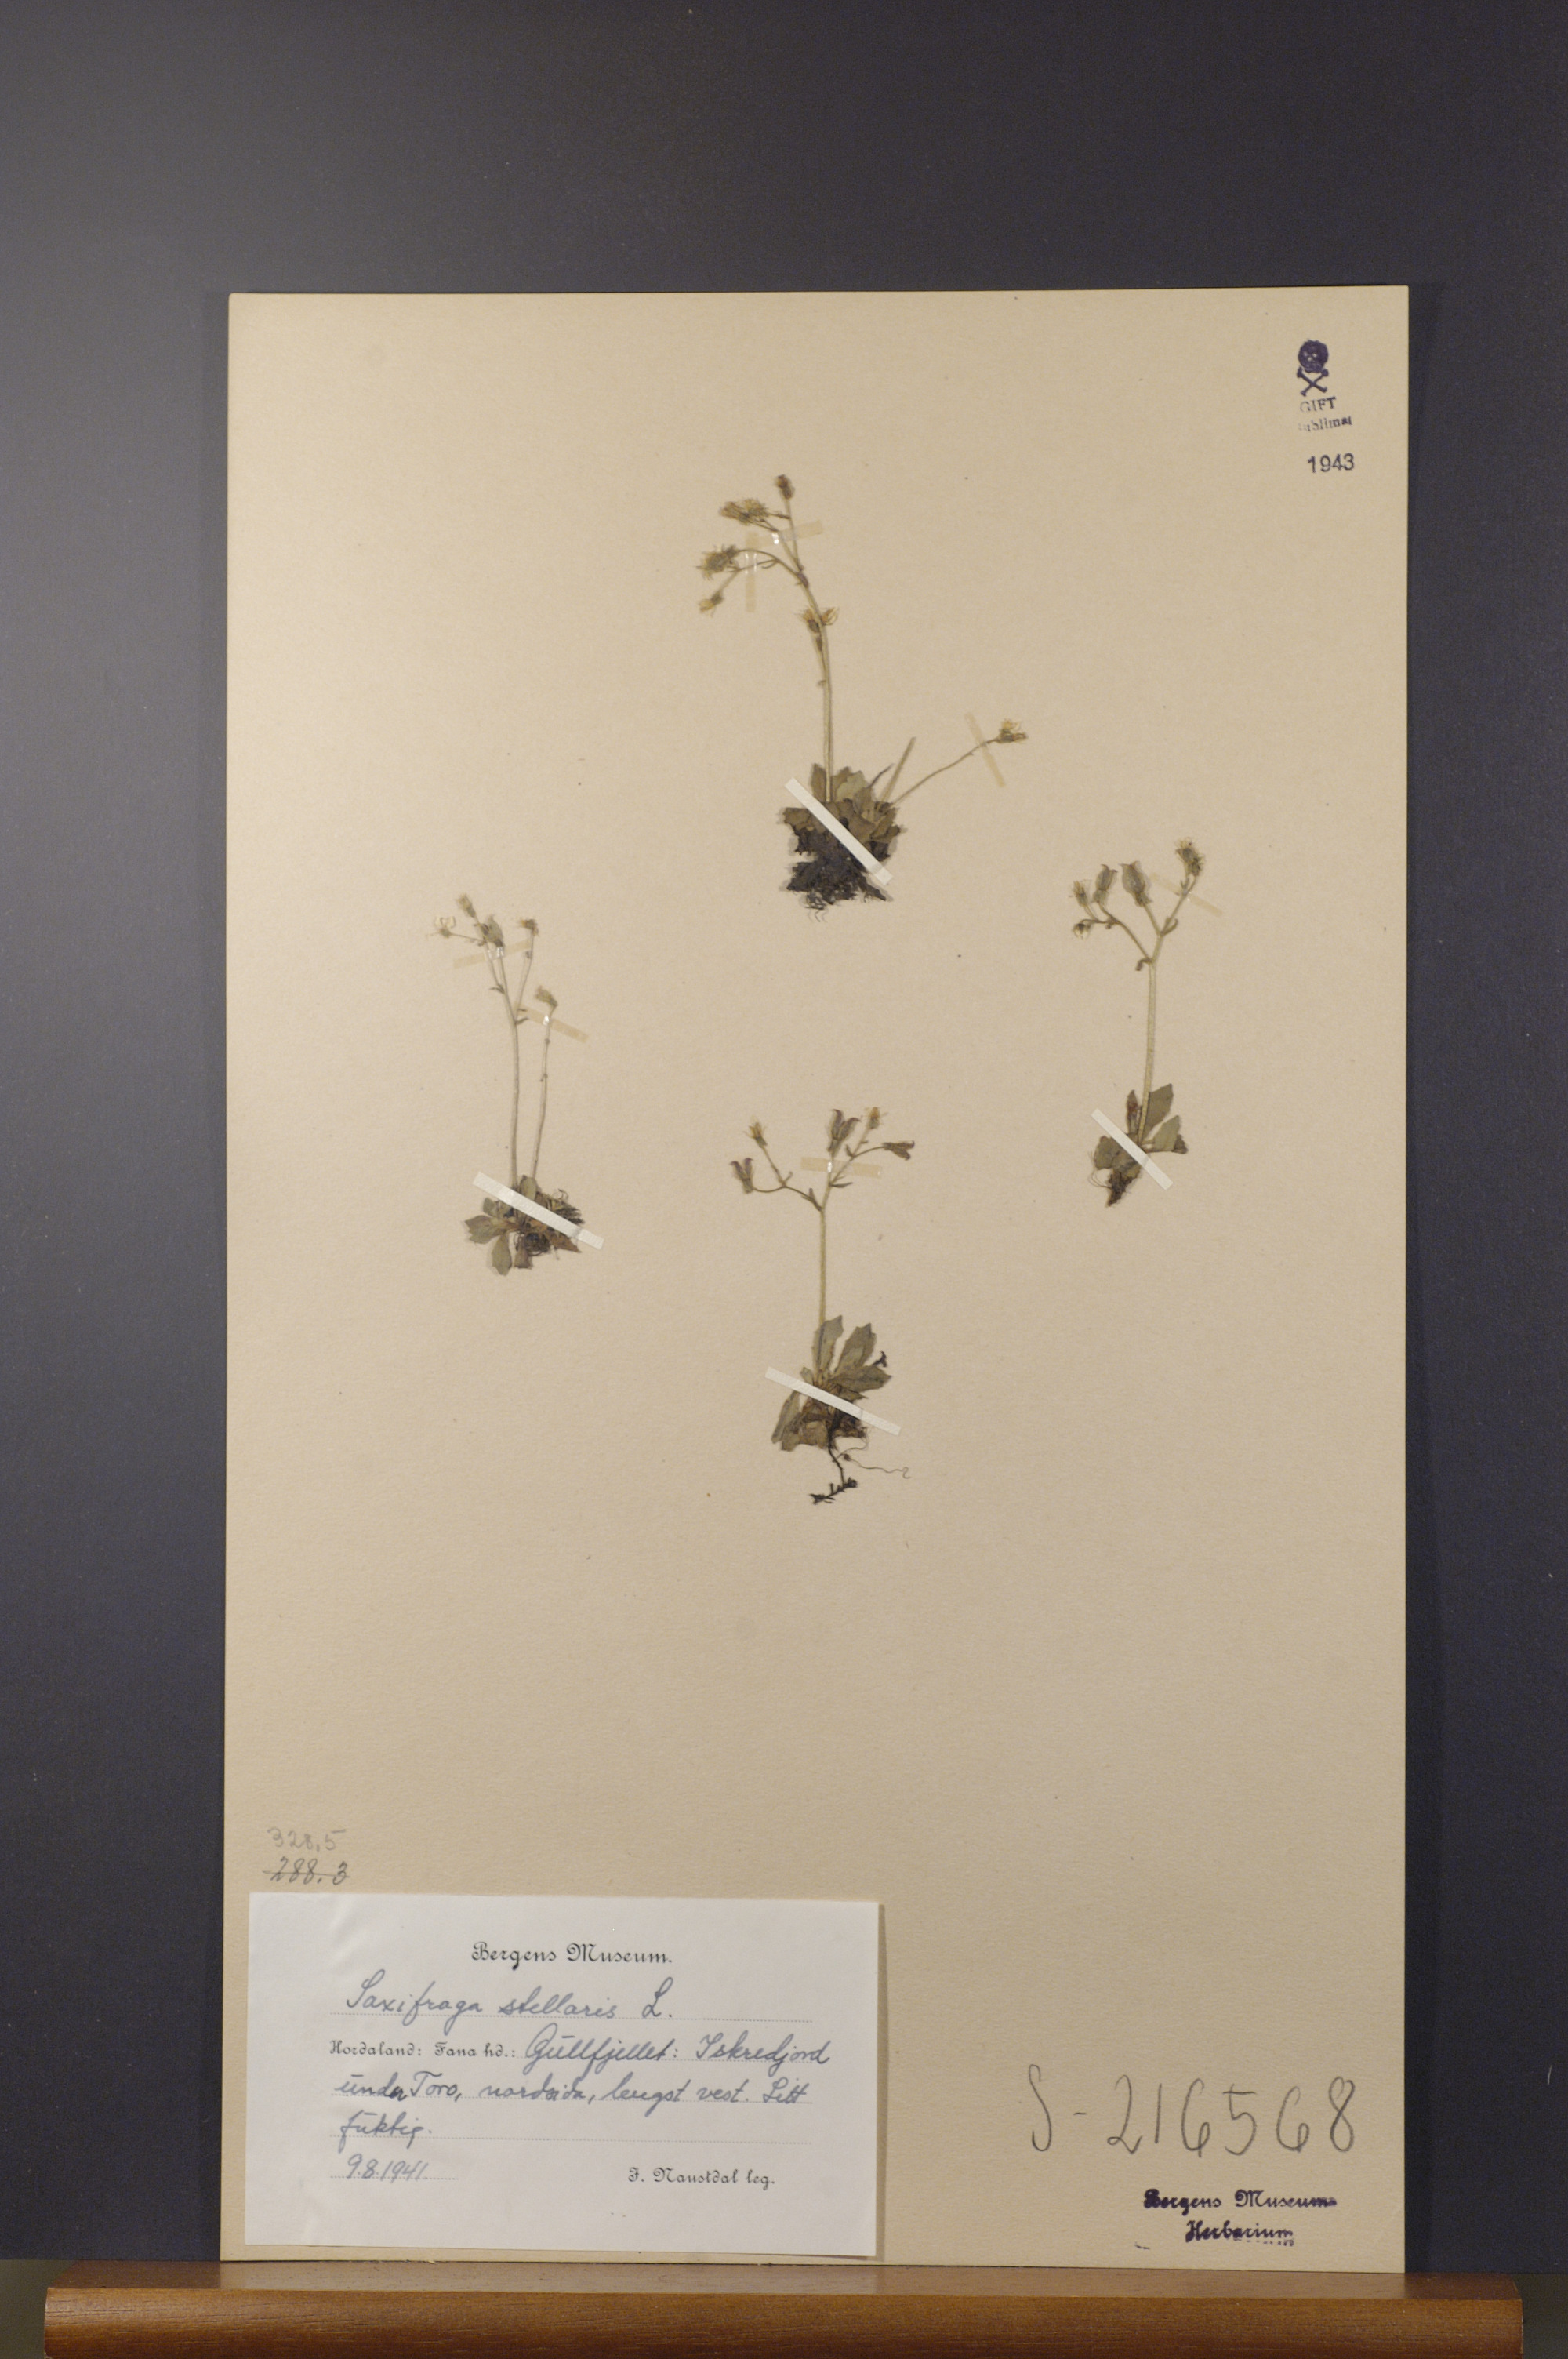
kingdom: Plantae
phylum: Tracheophyta
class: Magnoliopsida
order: Saxifragales
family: Saxifragaceae
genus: Micranthes
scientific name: Micranthes stellaris
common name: Starry saxifrage
